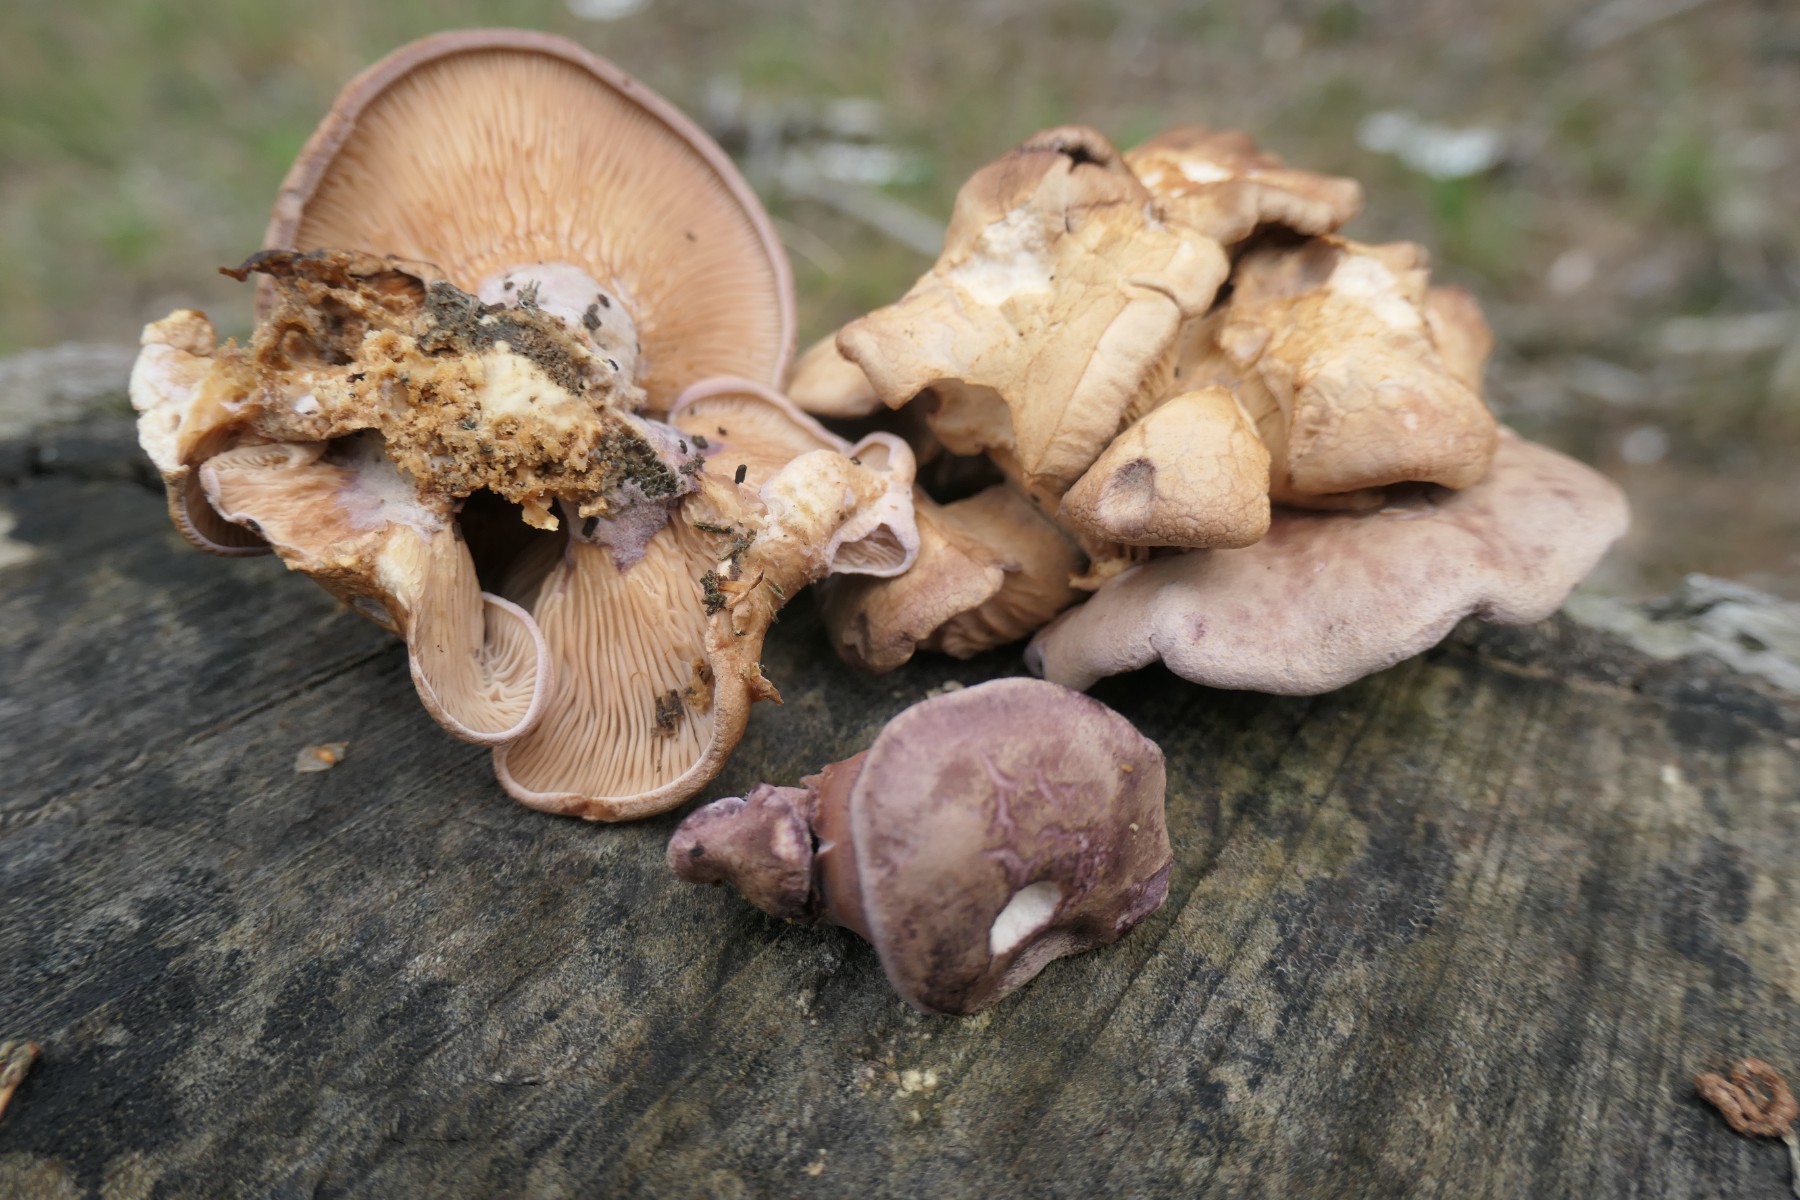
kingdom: Fungi
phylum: Basidiomycota
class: Agaricomycetes
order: Polyporales
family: Panaceae
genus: Panus
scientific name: Panus conchatus
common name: filtstokket læderhat
